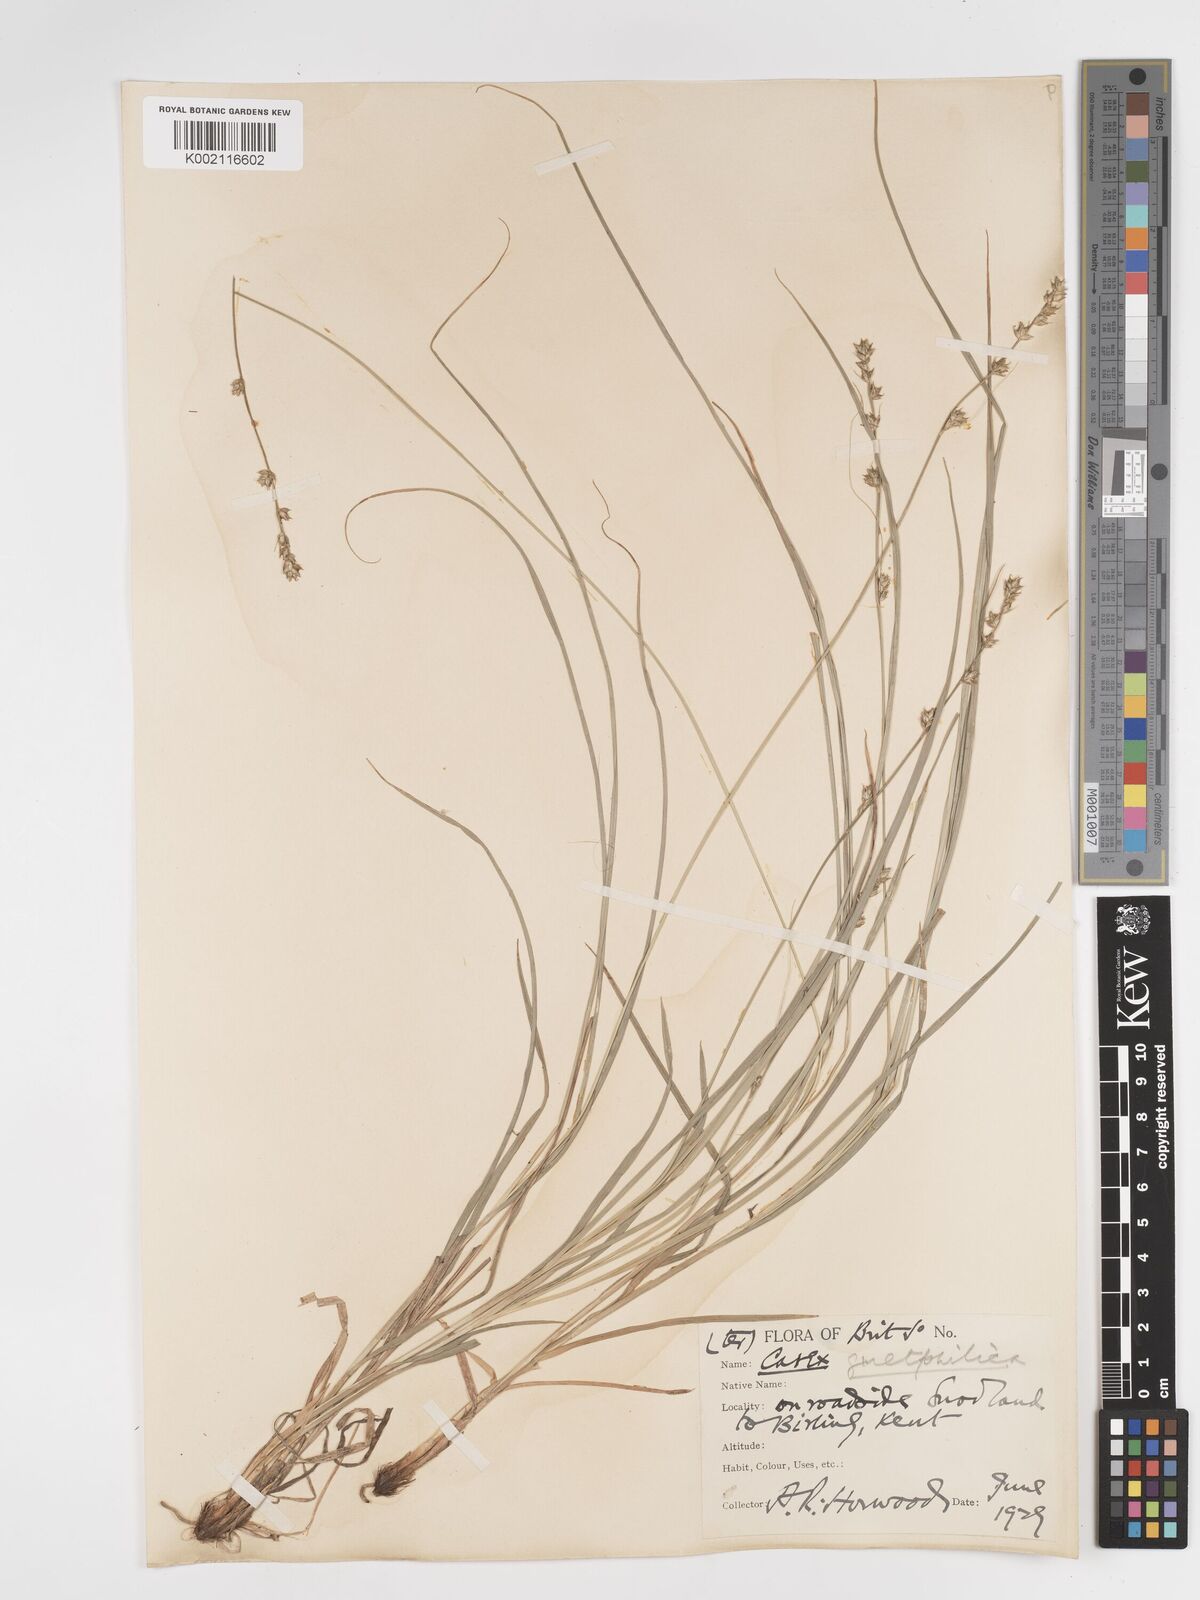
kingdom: Plantae
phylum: Tracheophyta
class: Liliopsida
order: Poales
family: Cyperaceae
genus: Carex
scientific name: Carex divulsa
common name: Grassland sedge
